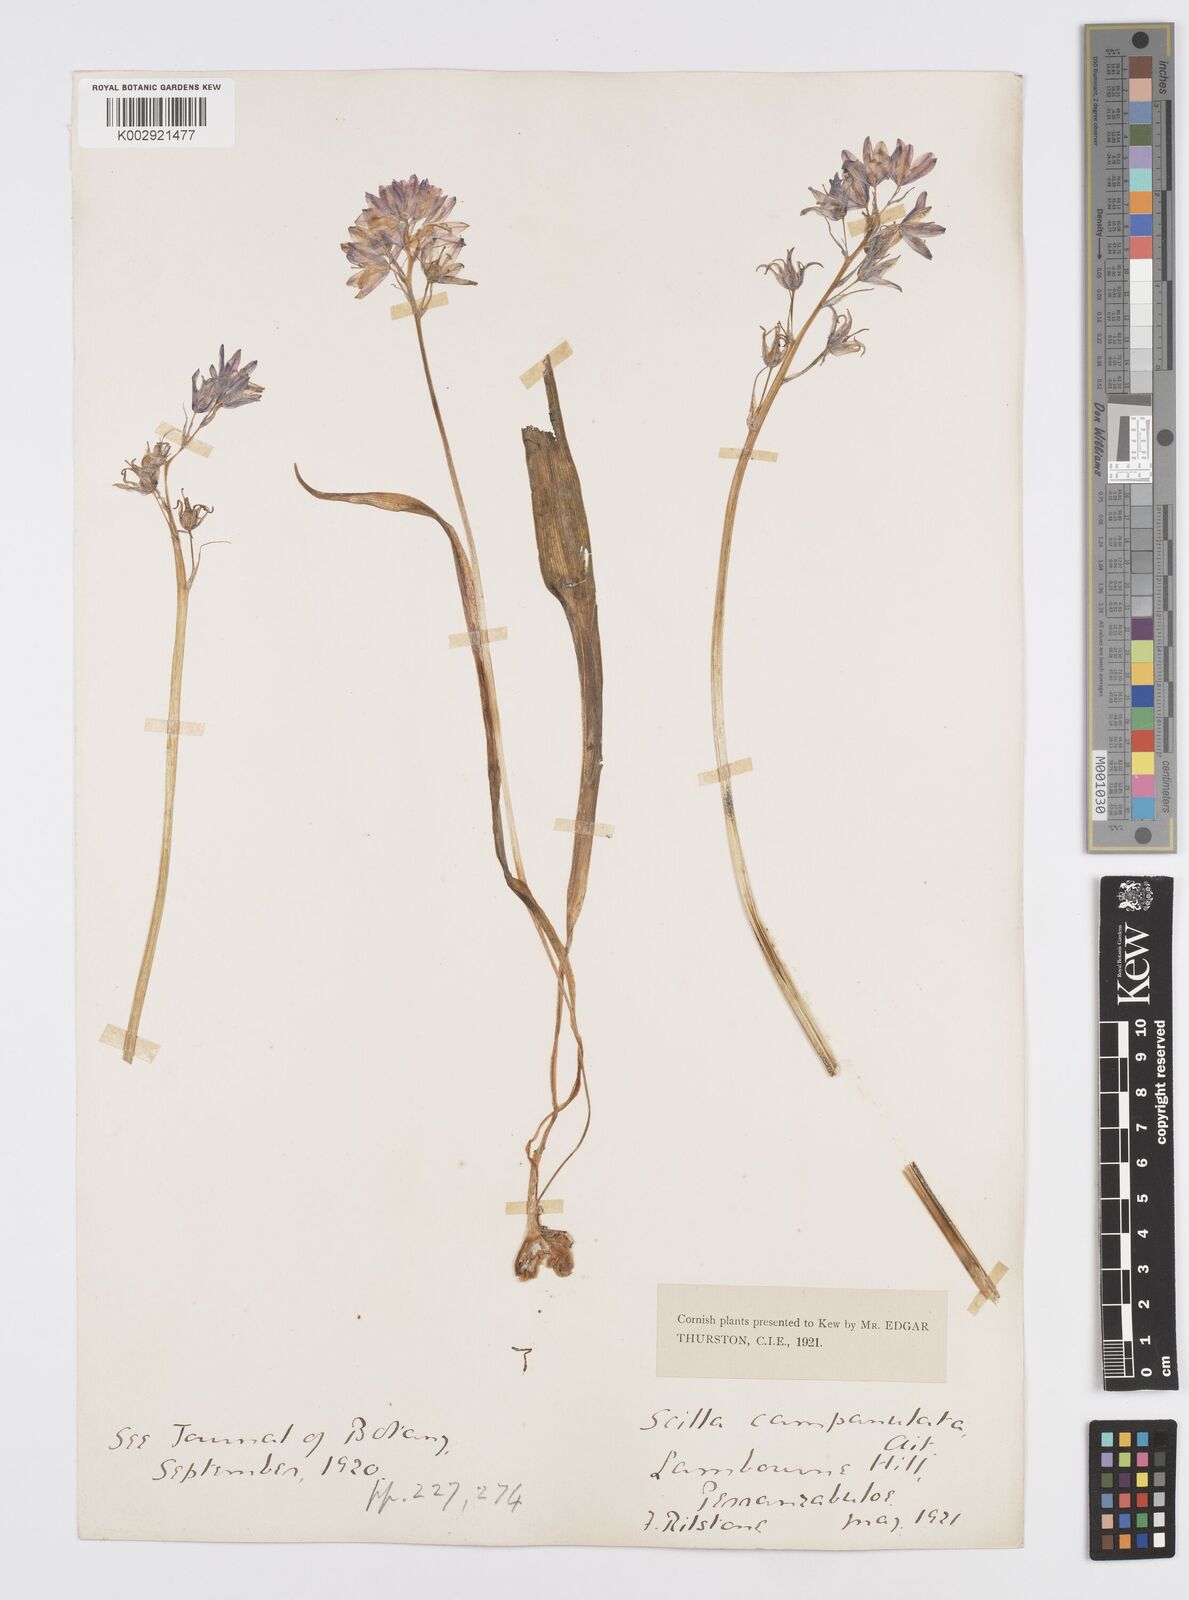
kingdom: Plantae
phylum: Tracheophyta
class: Liliopsida
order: Asparagales
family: Asparagaceae
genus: Hyacinthoides
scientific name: Hyacinthoides
